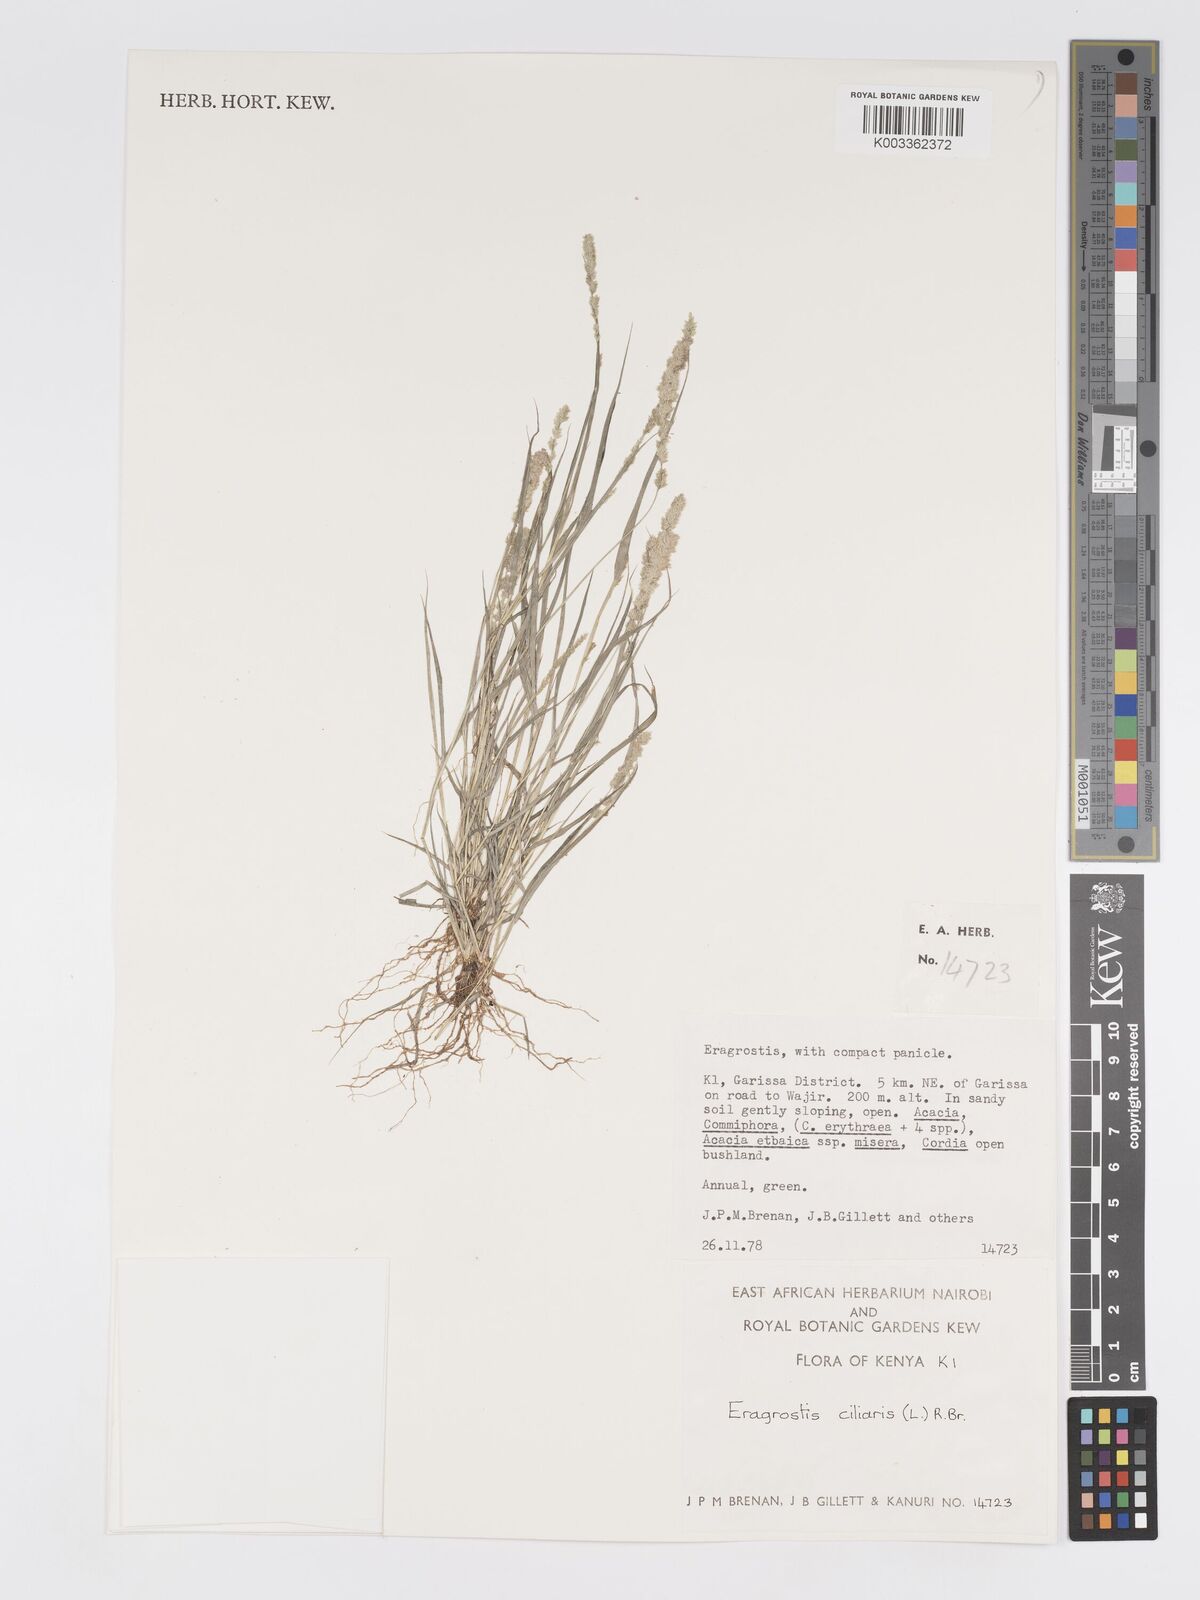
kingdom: Plantae
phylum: Tracheophyta
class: Liliopsida
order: Poales
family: Poaceae
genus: Eragrostis
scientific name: Eragrostis ciliaris
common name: Gophertail lovegrass
